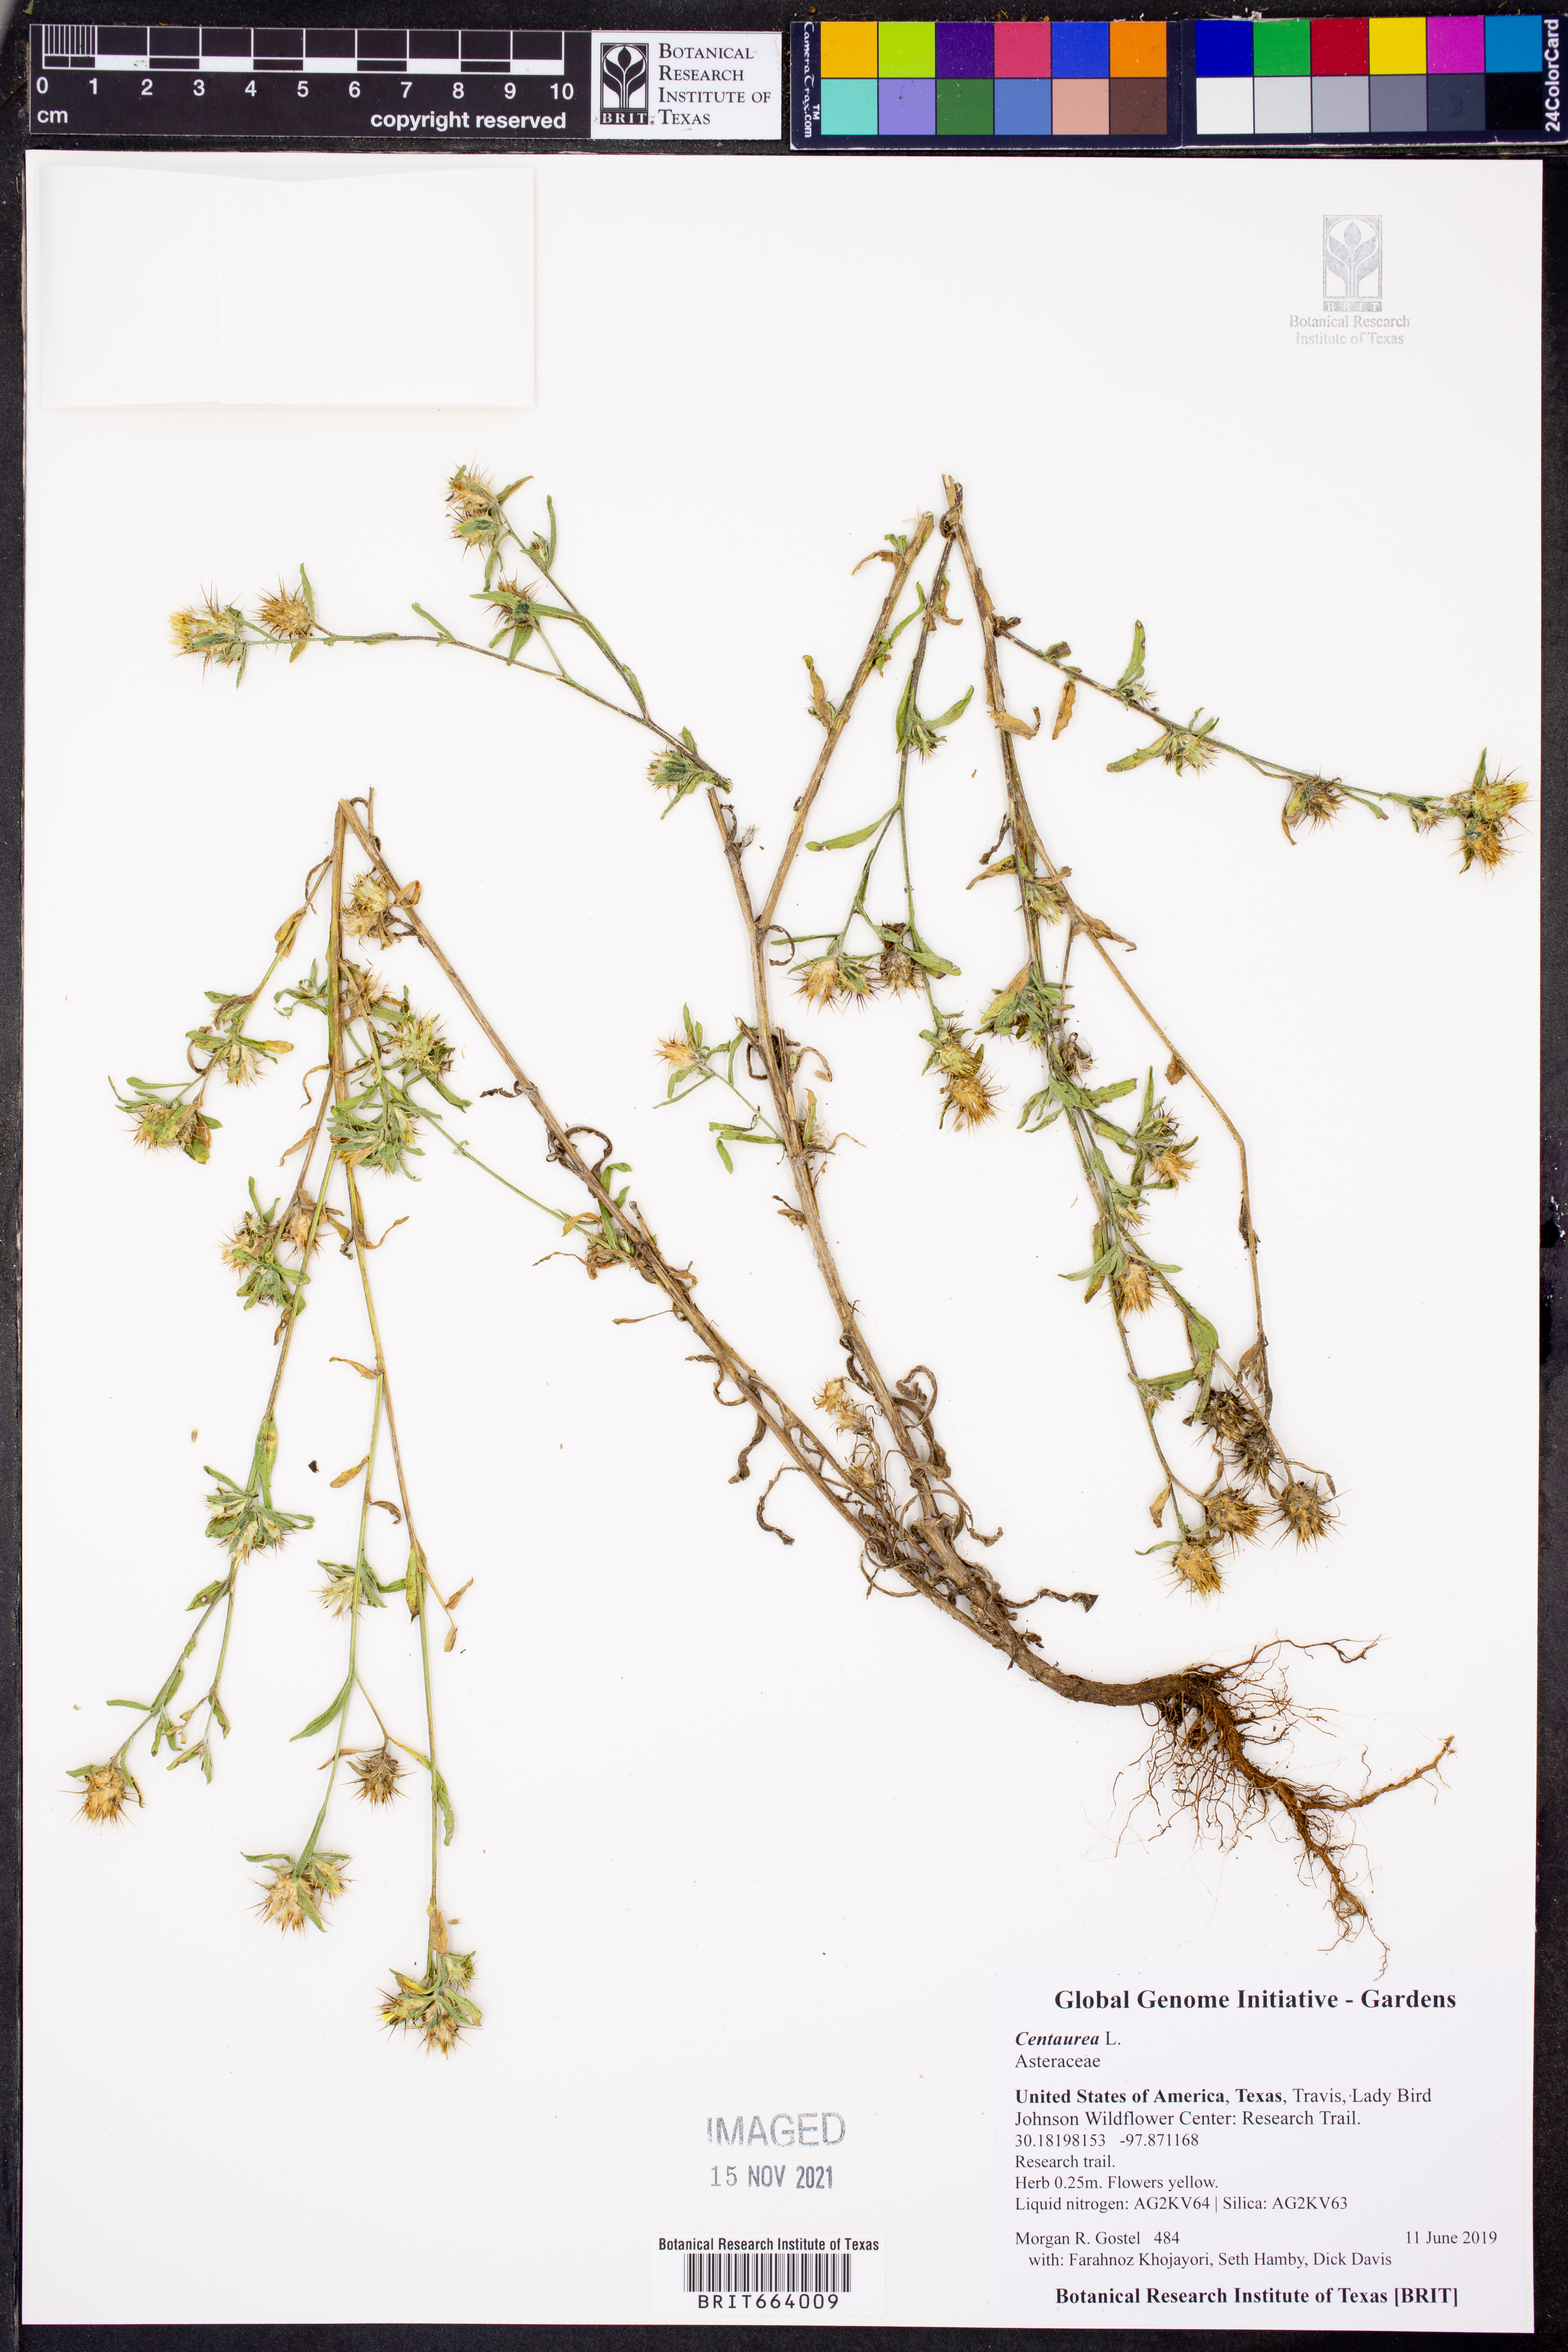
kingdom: Plantae
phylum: Tracheophyta
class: Magnoliopsida
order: Asterales
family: Asteraceae
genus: Centaurea
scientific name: Centaurea
